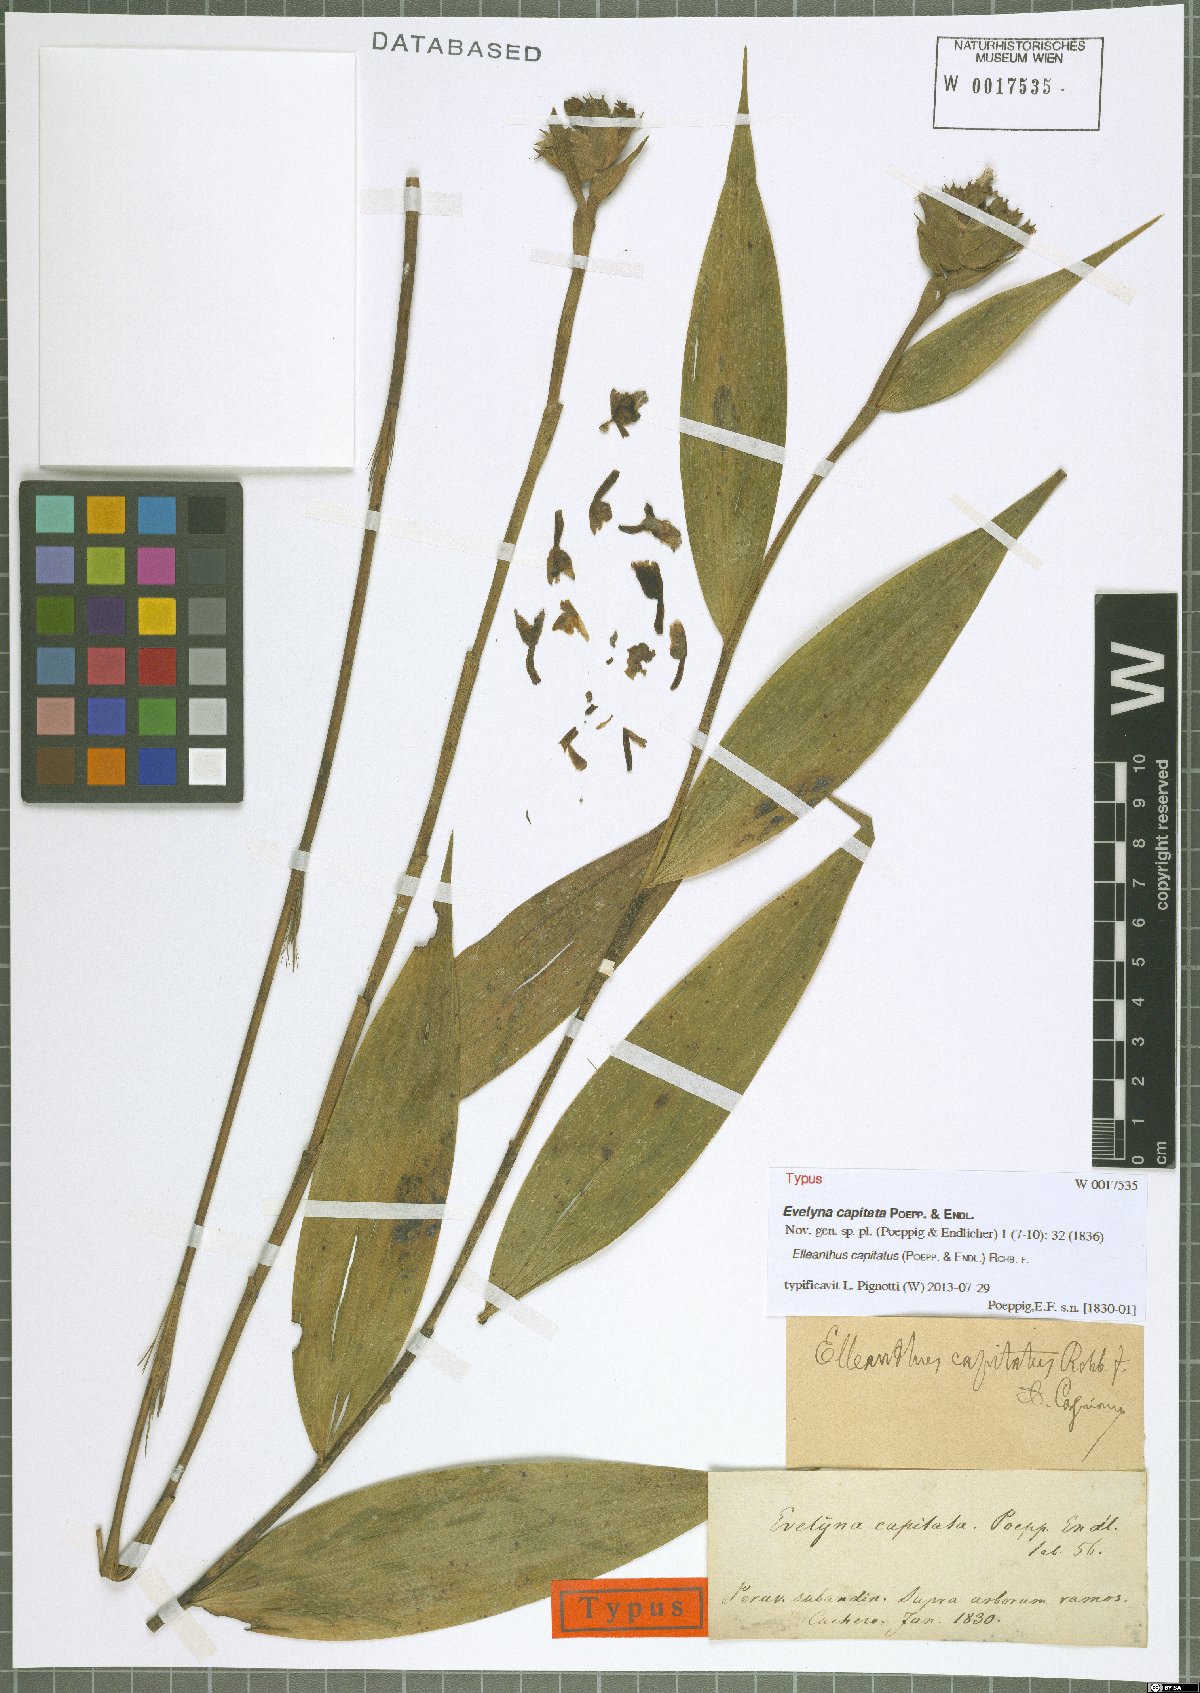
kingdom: Plantae
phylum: Tracheophyta
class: Liliopsida
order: Asparagales
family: Orchidaceae
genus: Elleanthus
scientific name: Elleanthus capitatus
